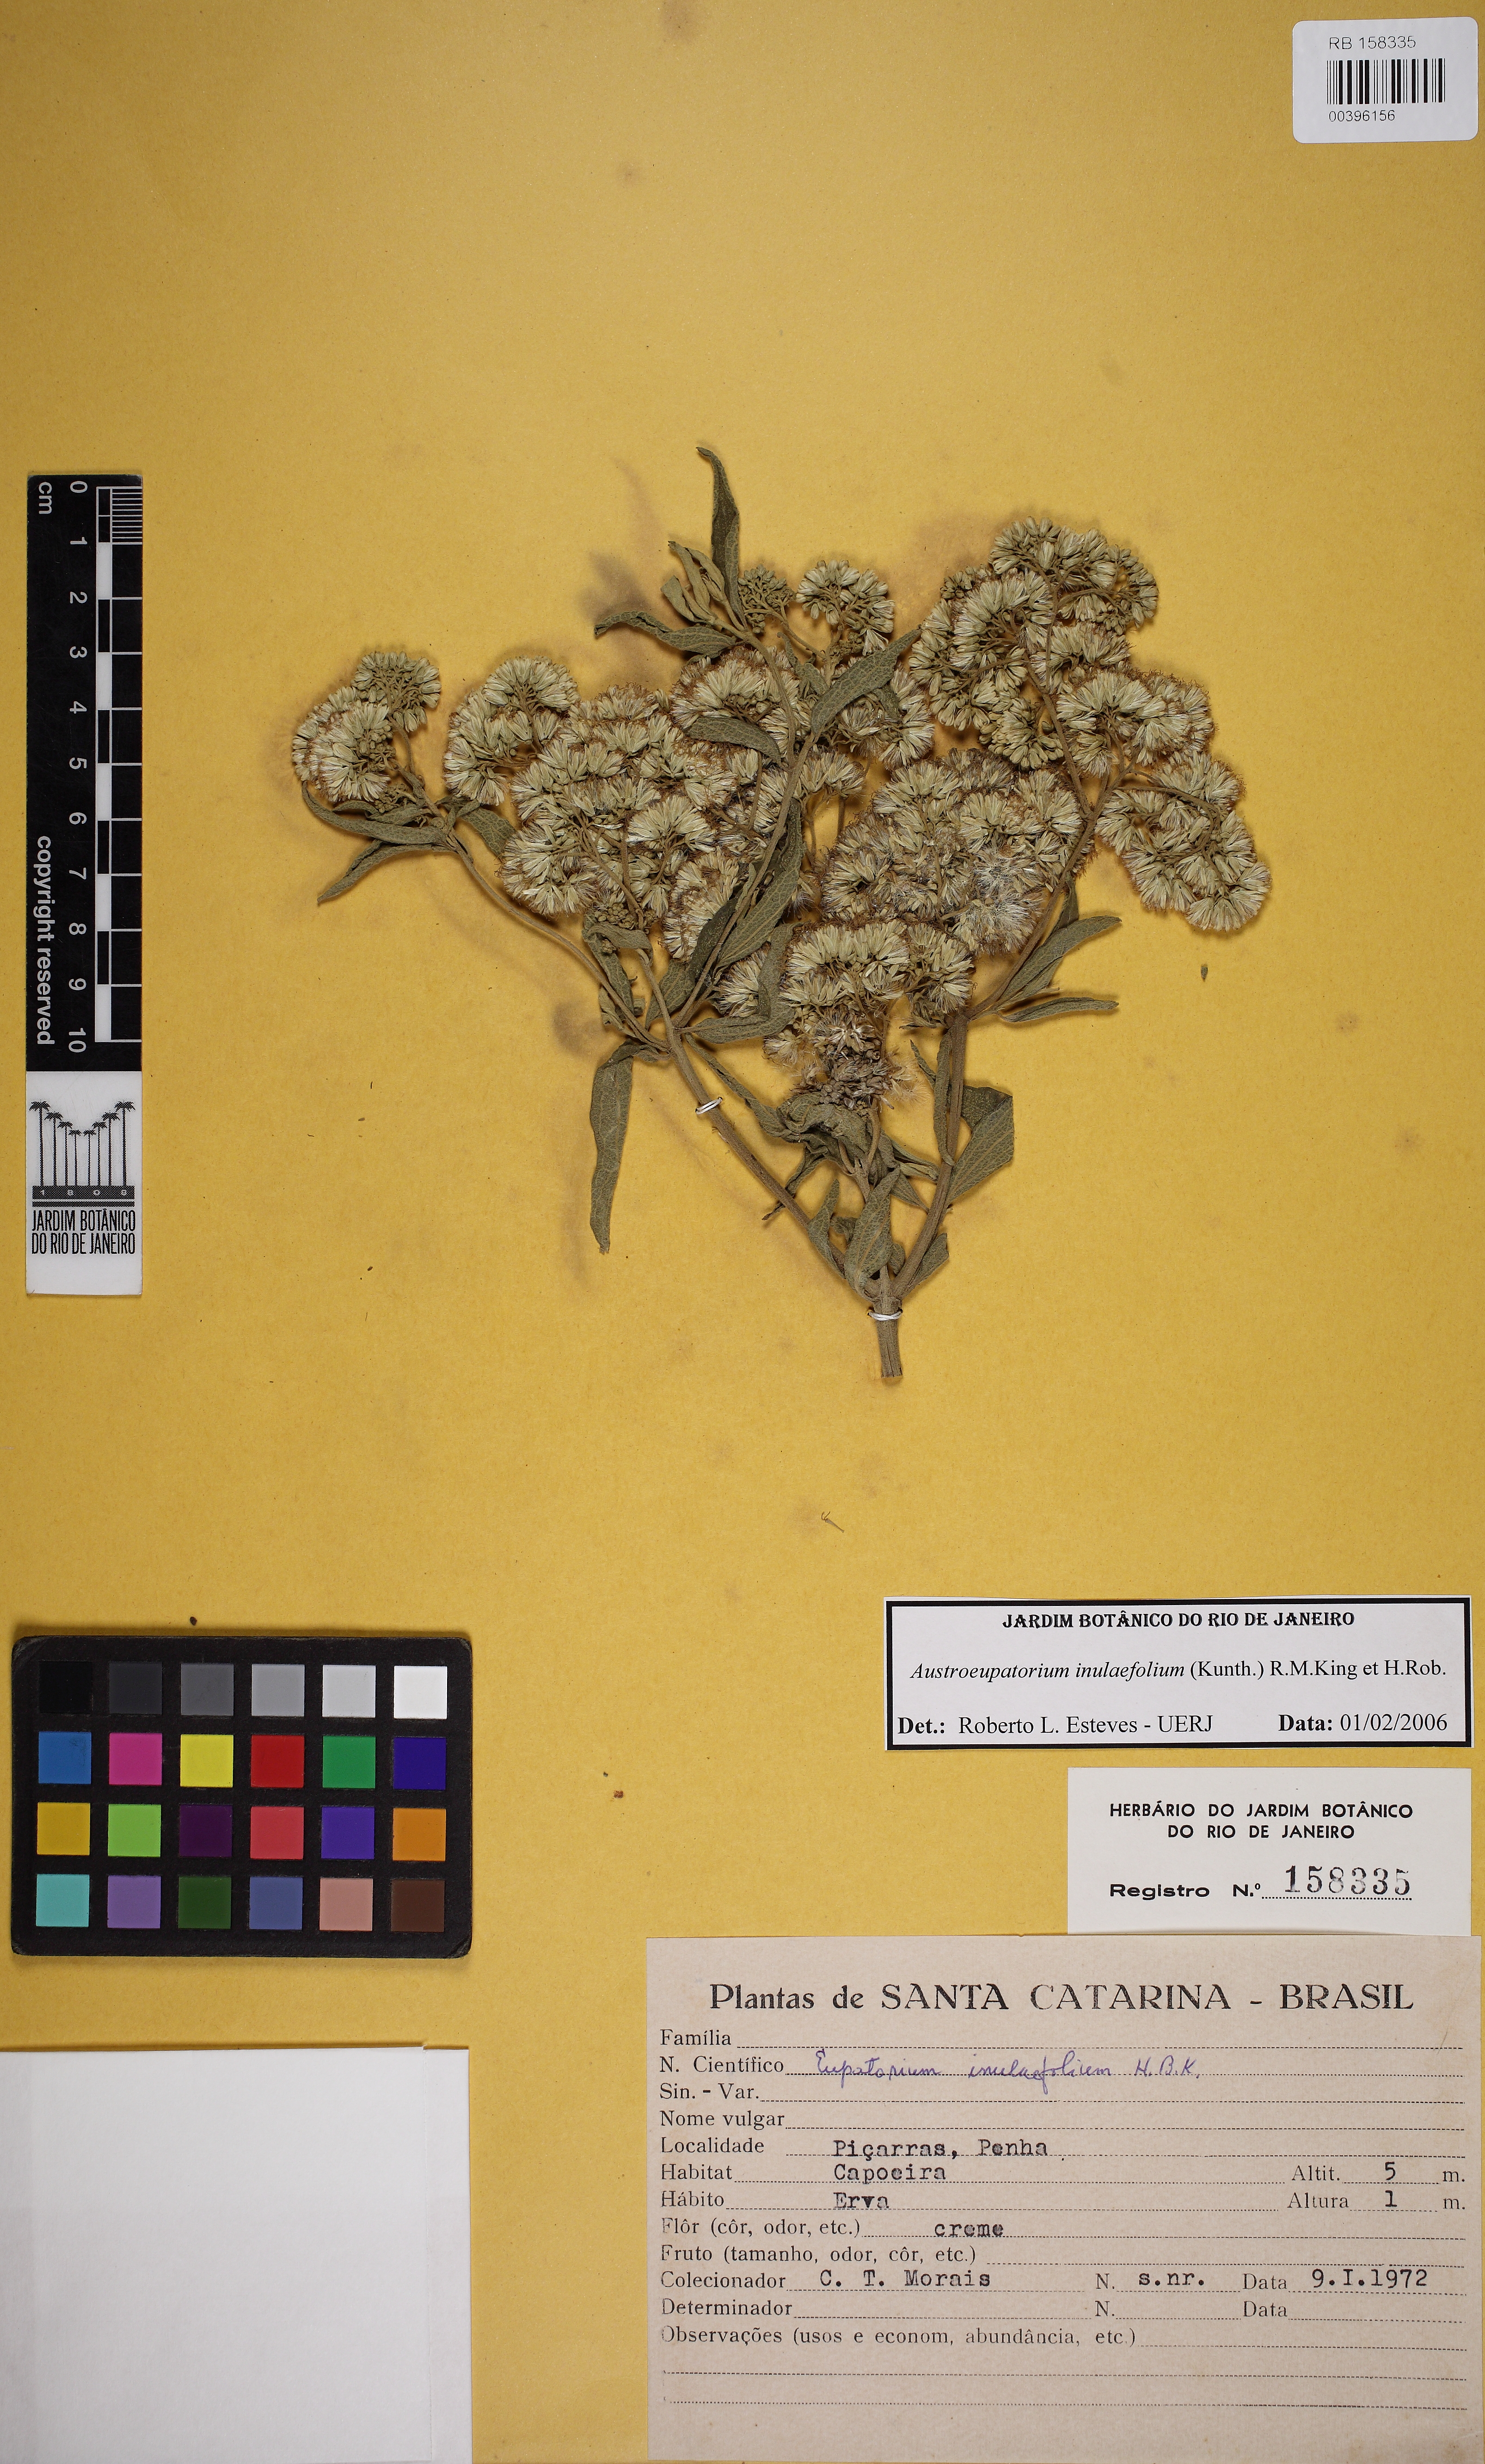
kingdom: Plantae
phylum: Tracheophyta
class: Magnoliopsida
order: Asterales
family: Asteraceae
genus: Austroeupatorium
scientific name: Austroeupatorium inulaefolium
